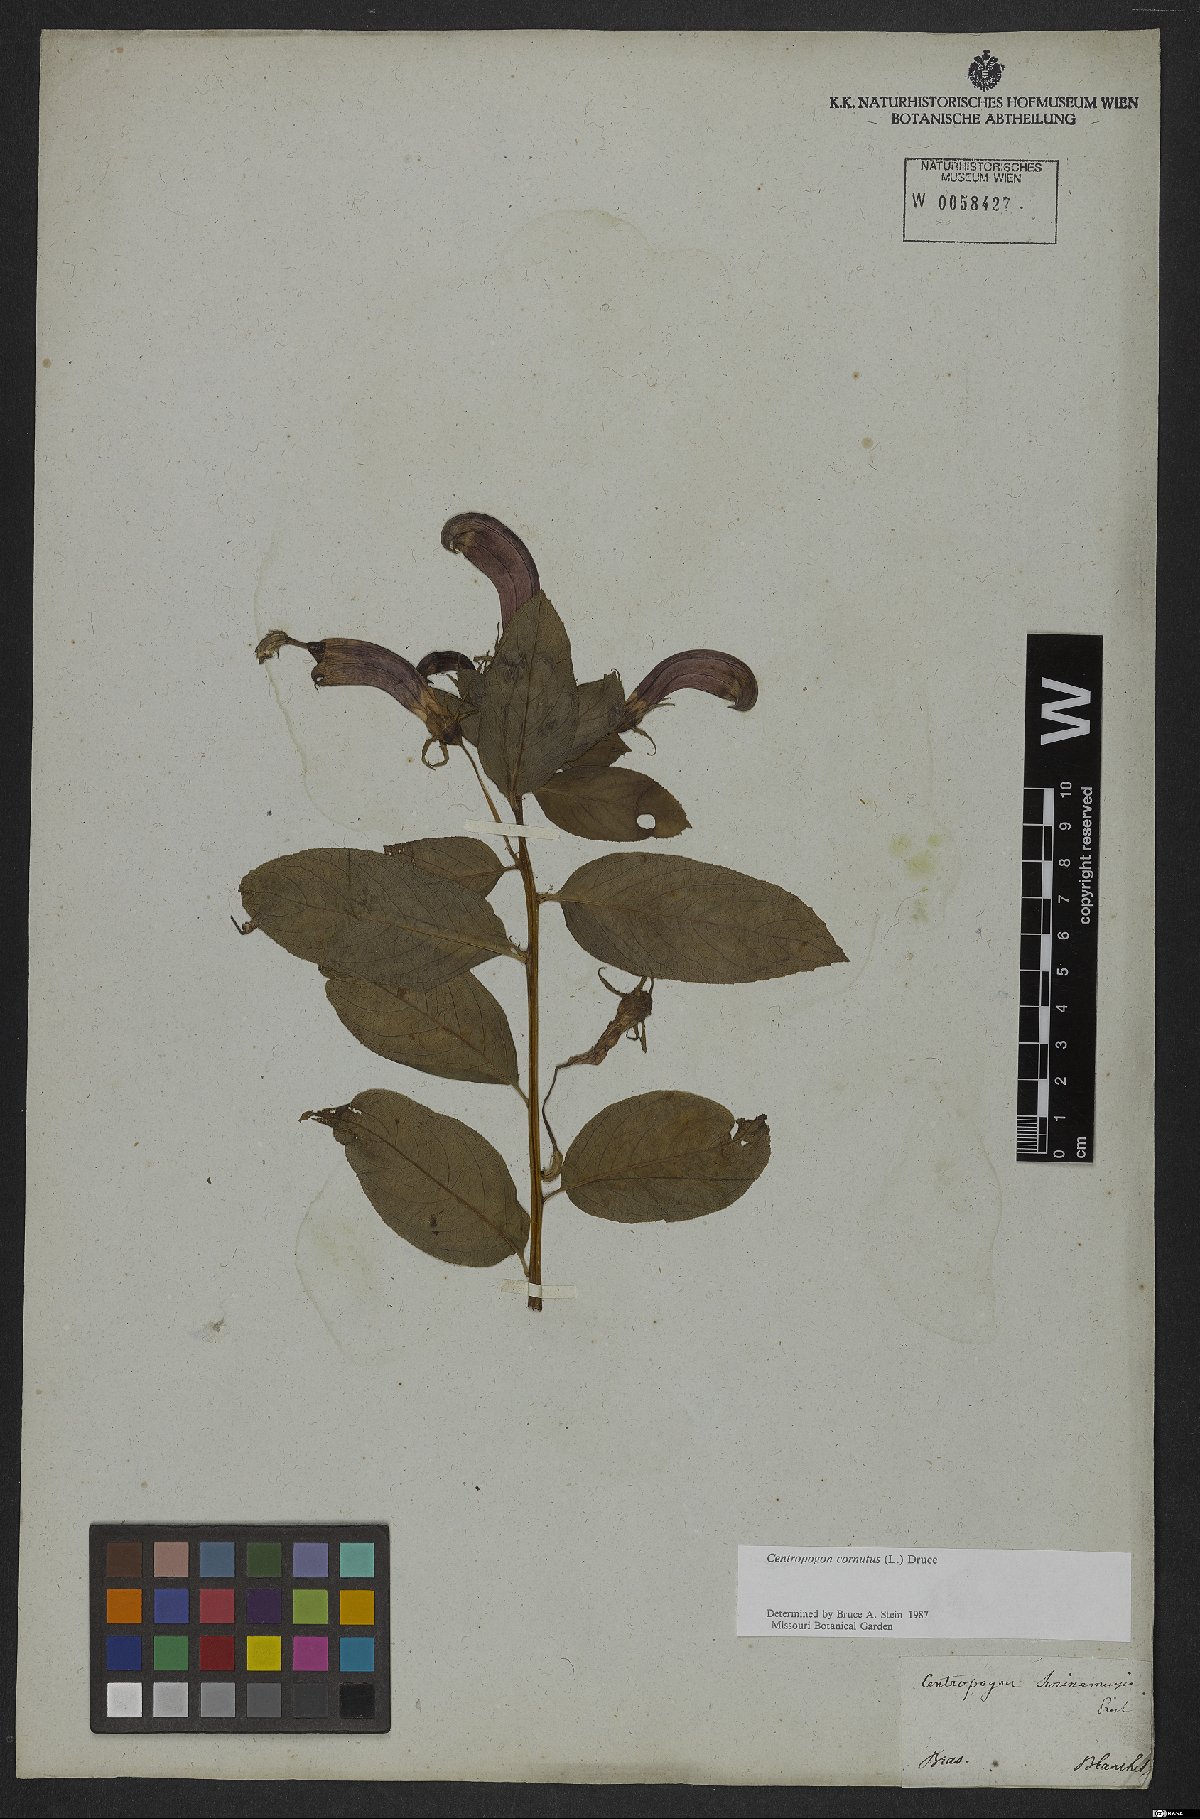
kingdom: Plantae
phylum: Tracheophyta
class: Magnoliopsida
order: Asterales
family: Campanulaceae
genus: Centropogon
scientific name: Centropogon cornutus
